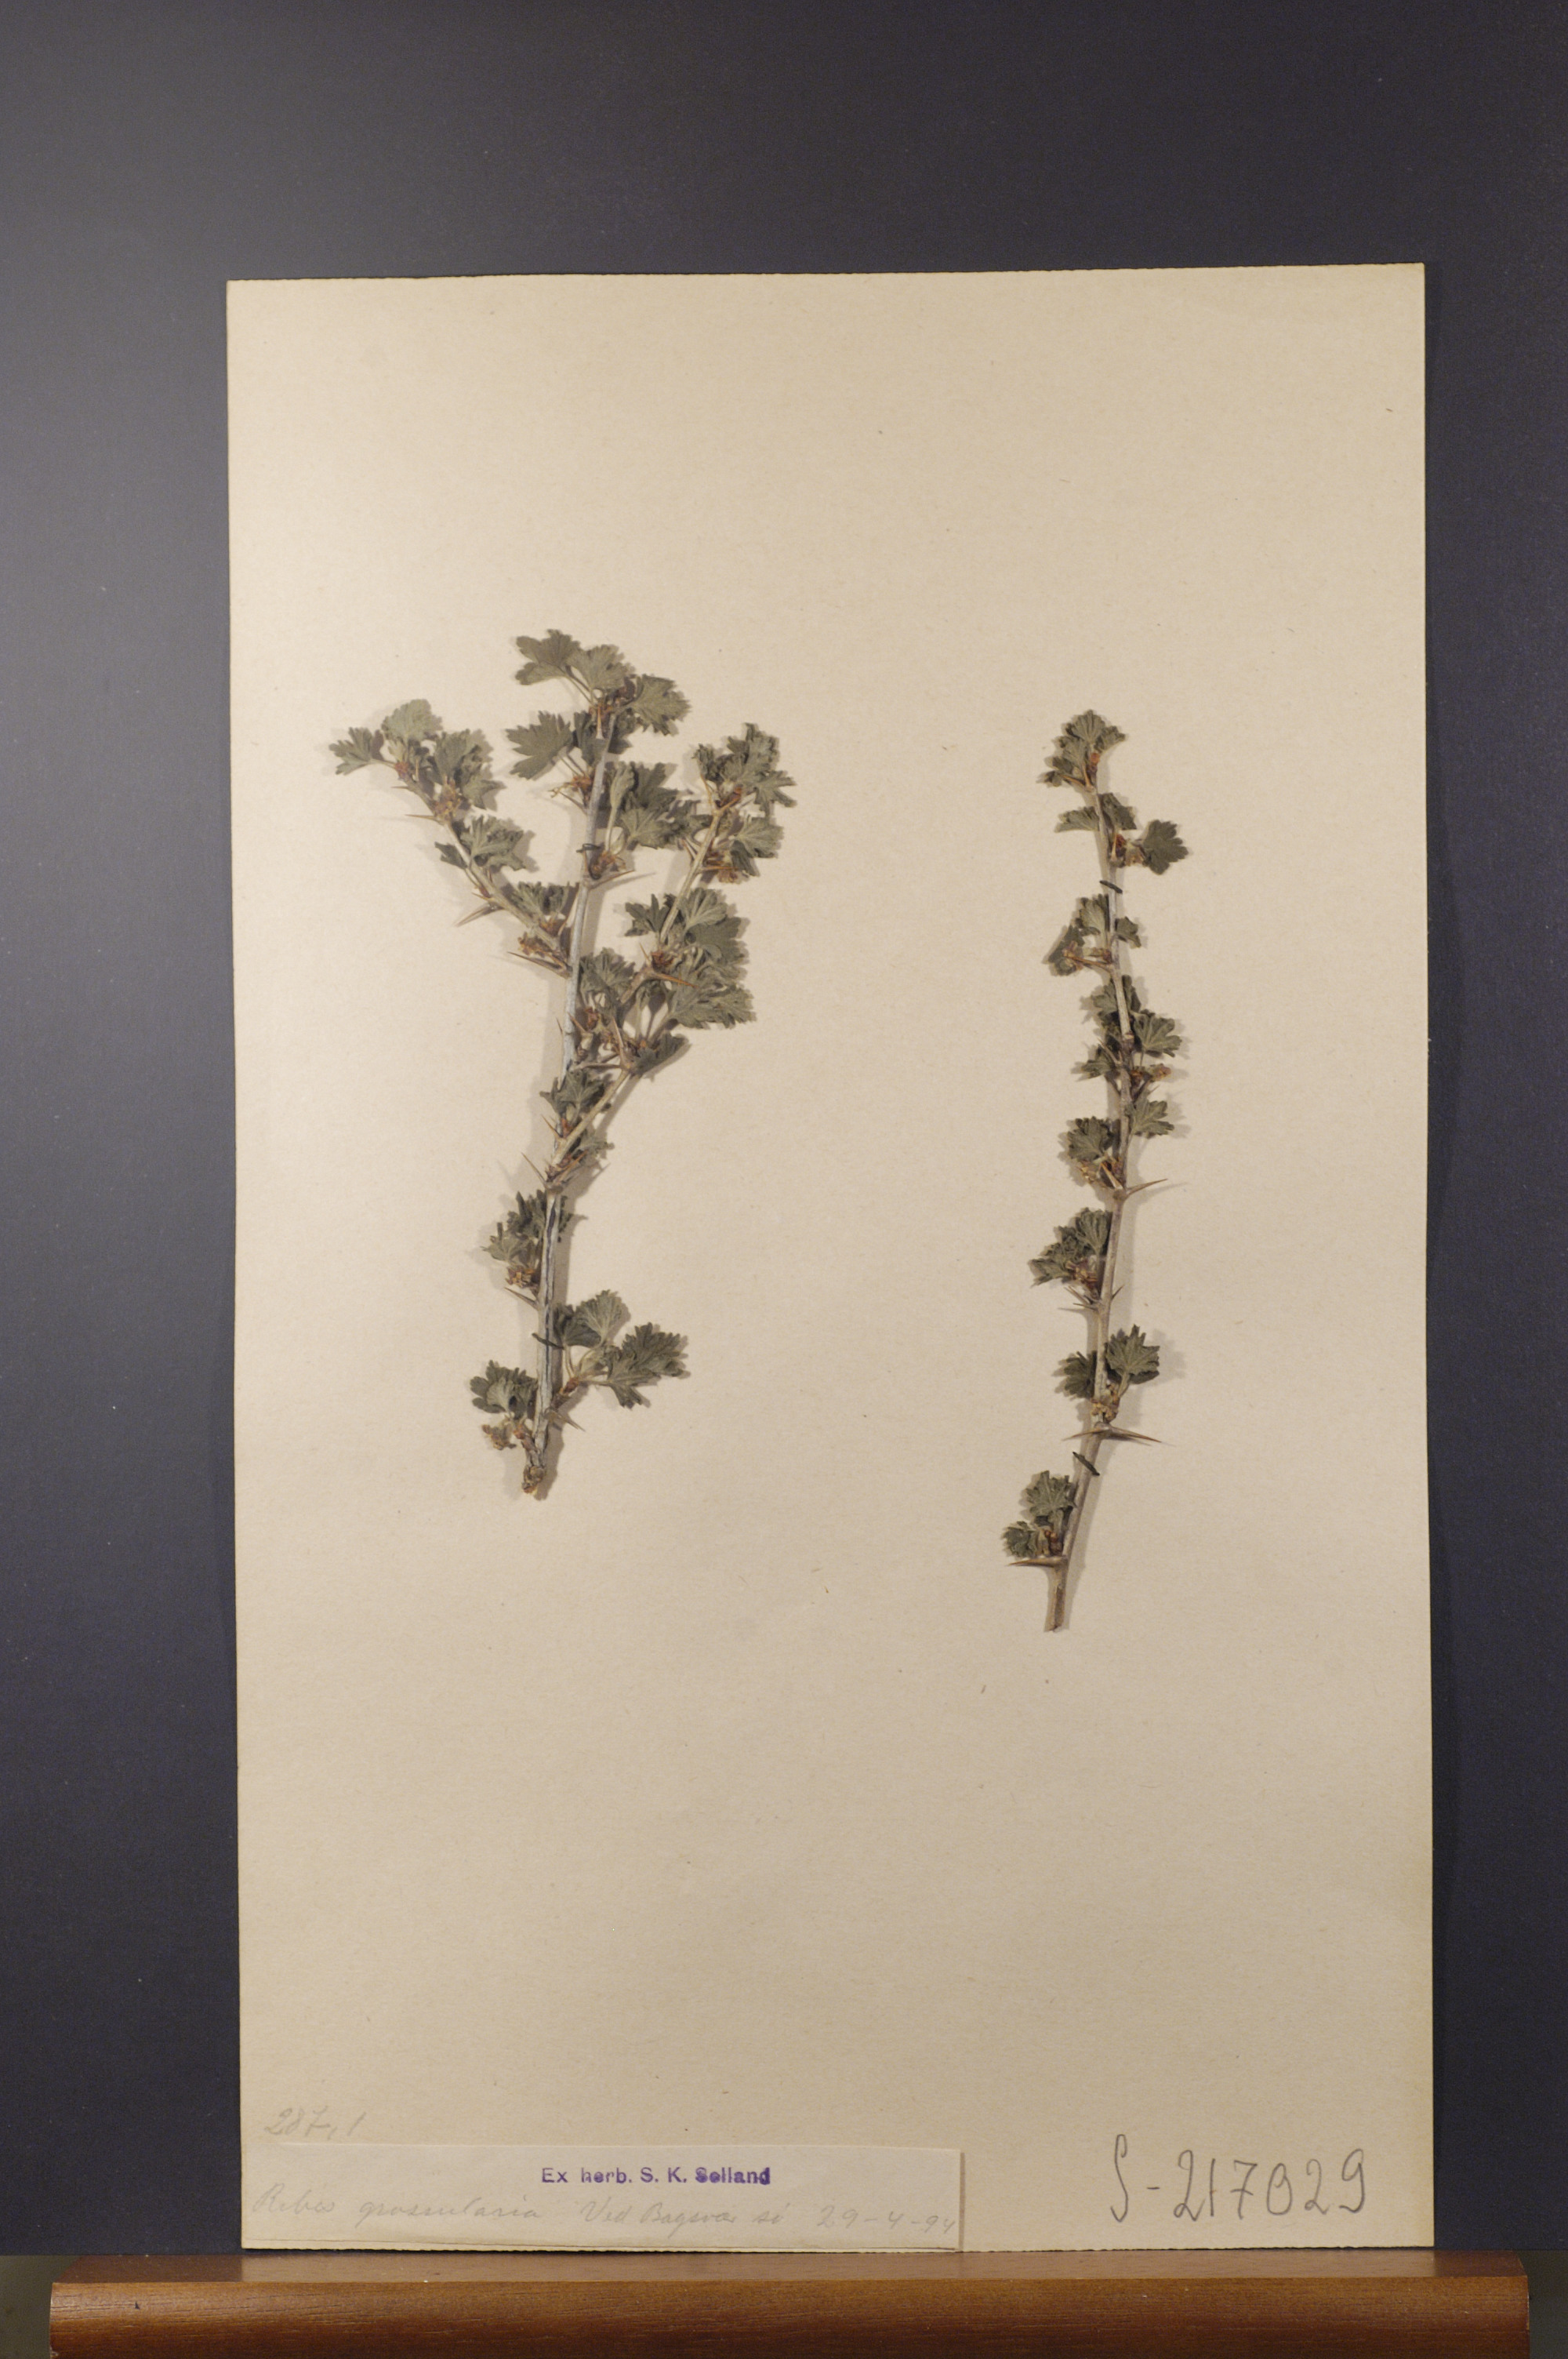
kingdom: Plantae
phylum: Tracheophyta
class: Magnoliopsida
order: Saxifragales
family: Grossulariaceae
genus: Ribes
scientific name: Ribes uva-crispa
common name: Gooseberry
